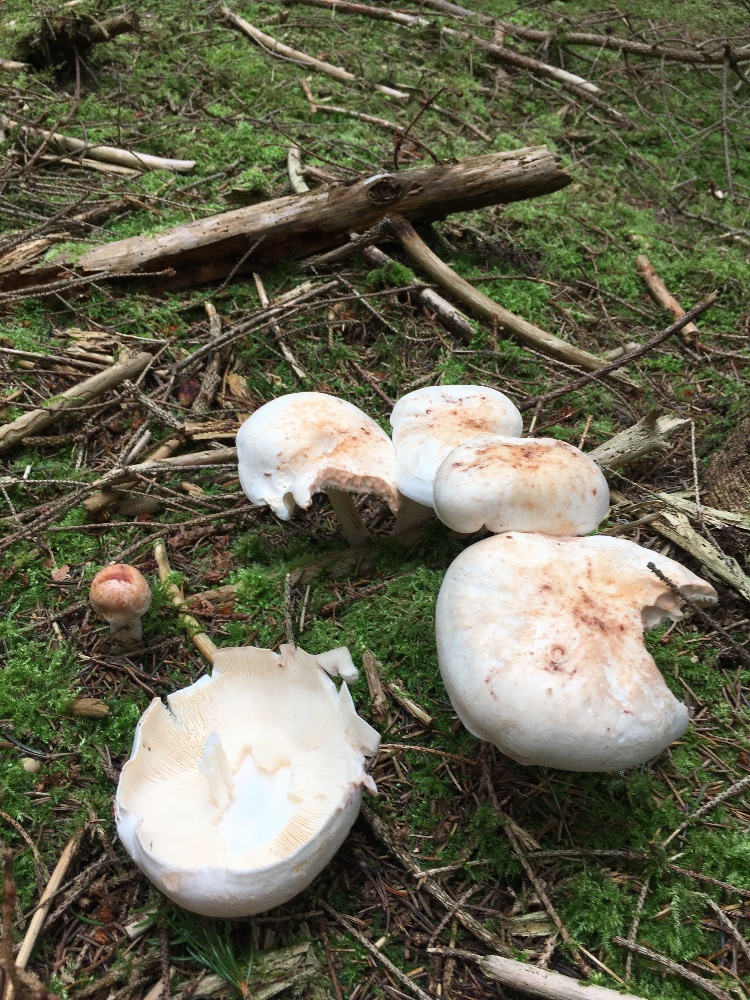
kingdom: Fungi
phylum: Basidiomycota
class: Agaricomycetes
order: Agaricales
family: Omphalotaceae
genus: Rhodocollybia
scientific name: Rhodocollybia maculata
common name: plettet fladhat
